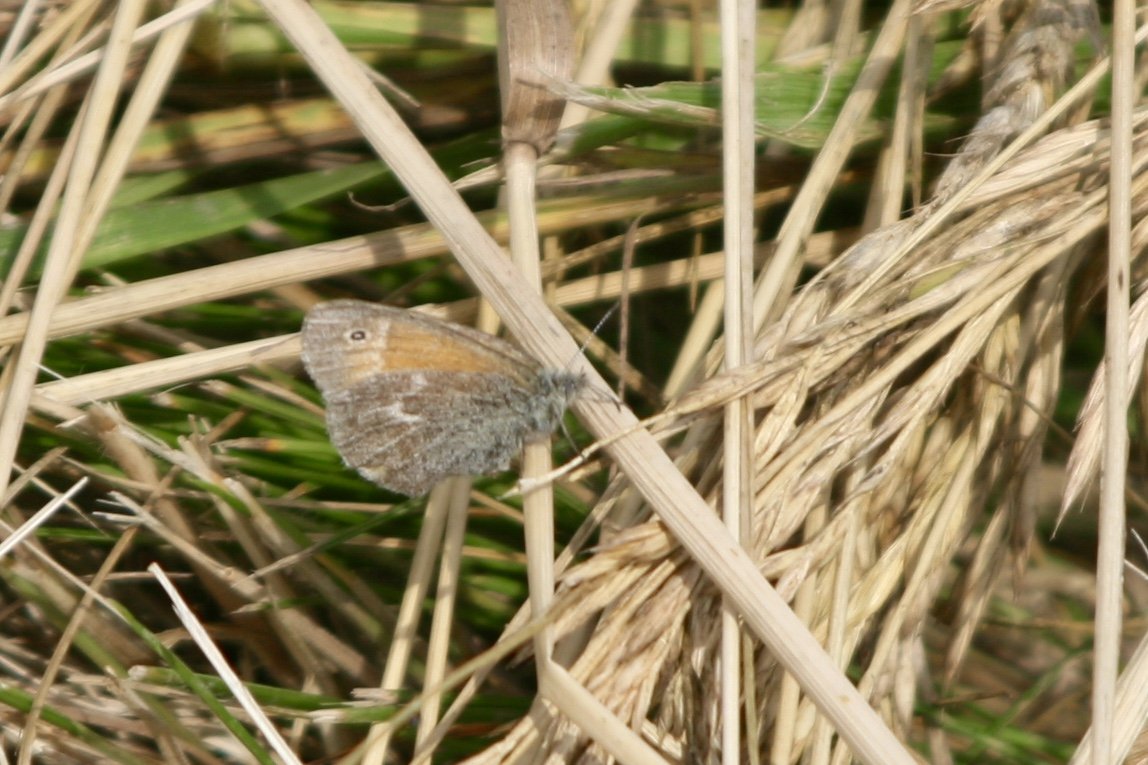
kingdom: Animalia
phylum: Arthropoda
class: Insecta
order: Lepidoptera
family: Nymphalidae
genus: Coenonympha
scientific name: Coenonympha tullia
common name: Large Heath
